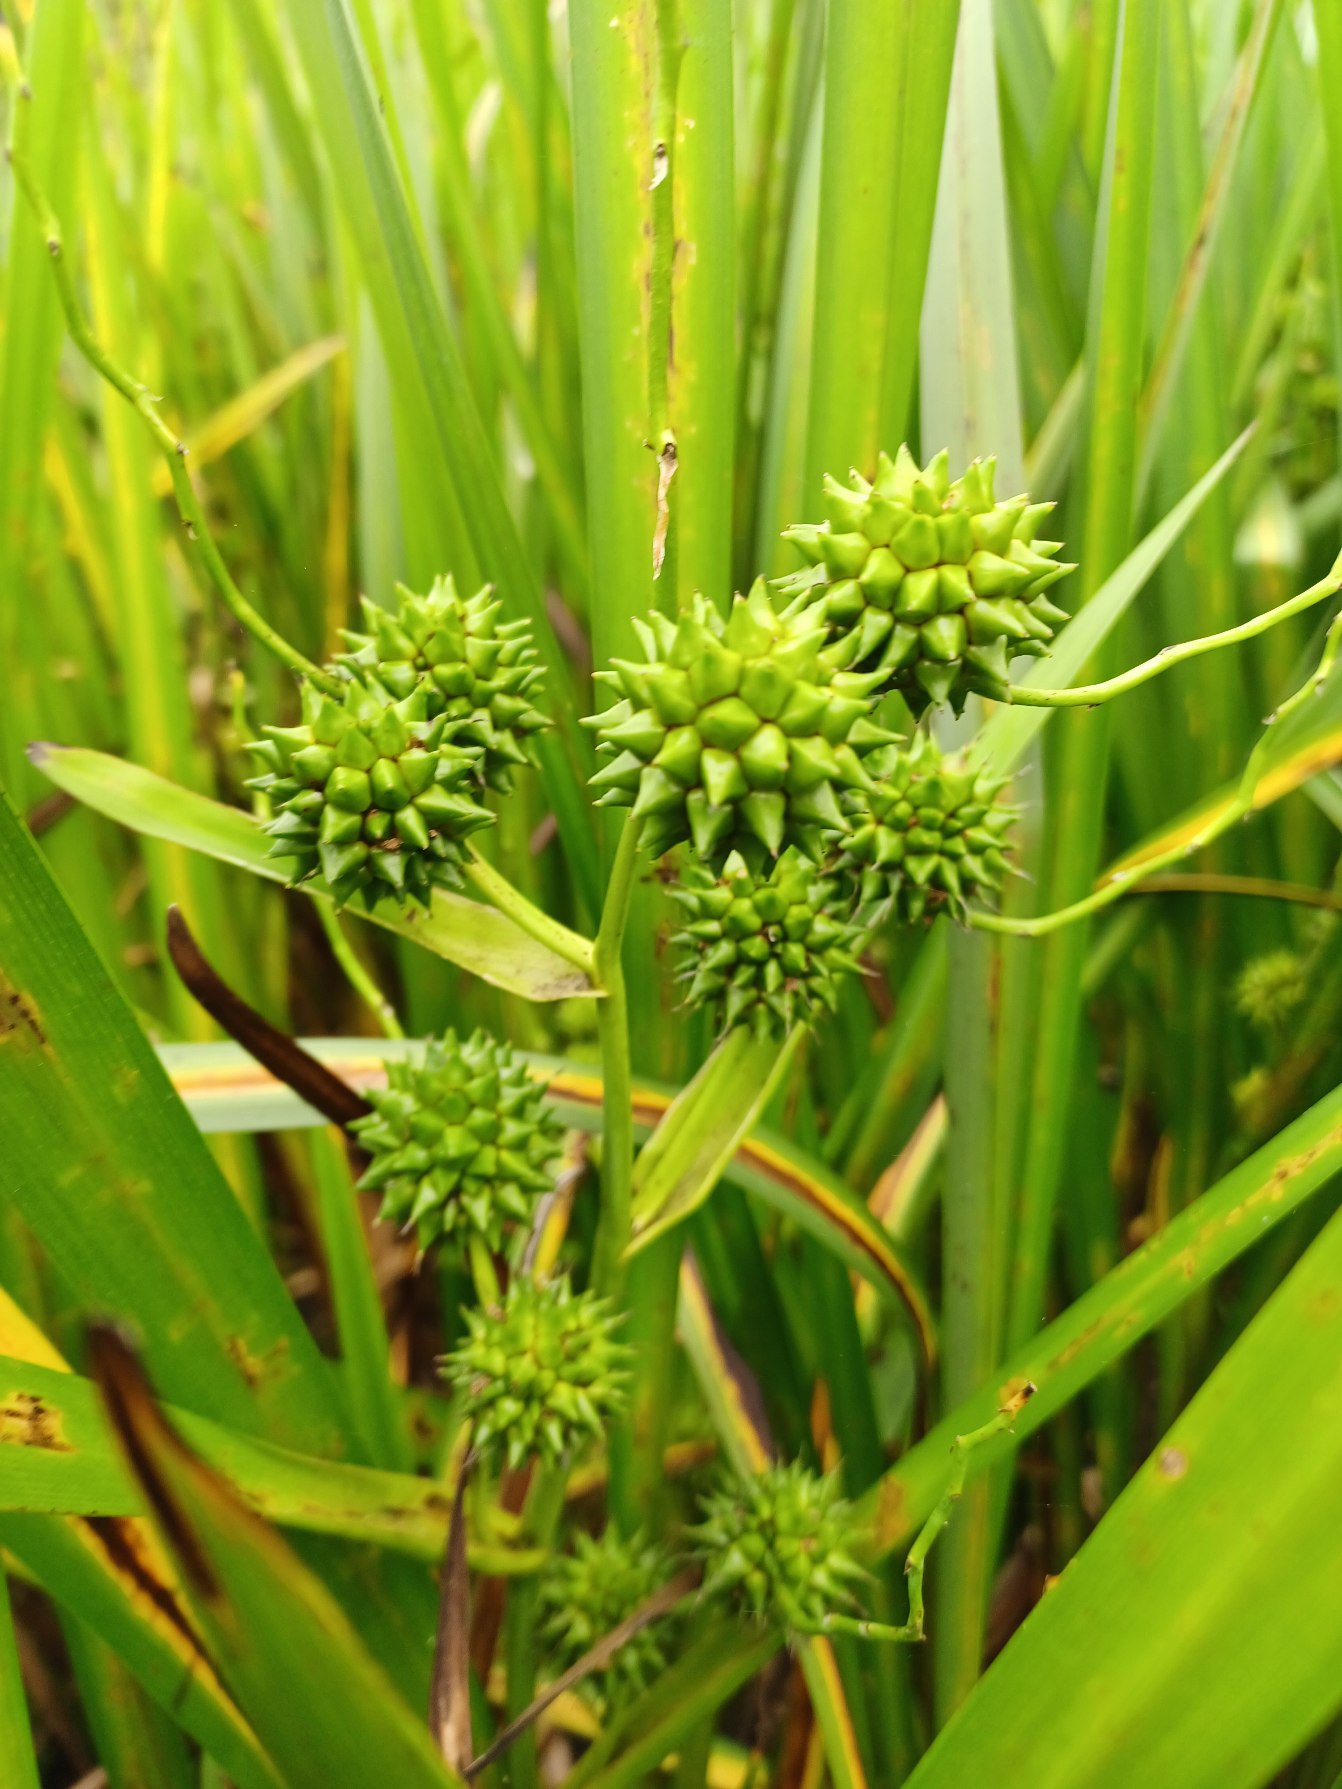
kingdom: Plantae
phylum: Tracheophyta
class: Liliopsida
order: Poales
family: Typhaceae
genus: Sparganium
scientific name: Sparganium erectum
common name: Sodfarvet pindsvineknop
